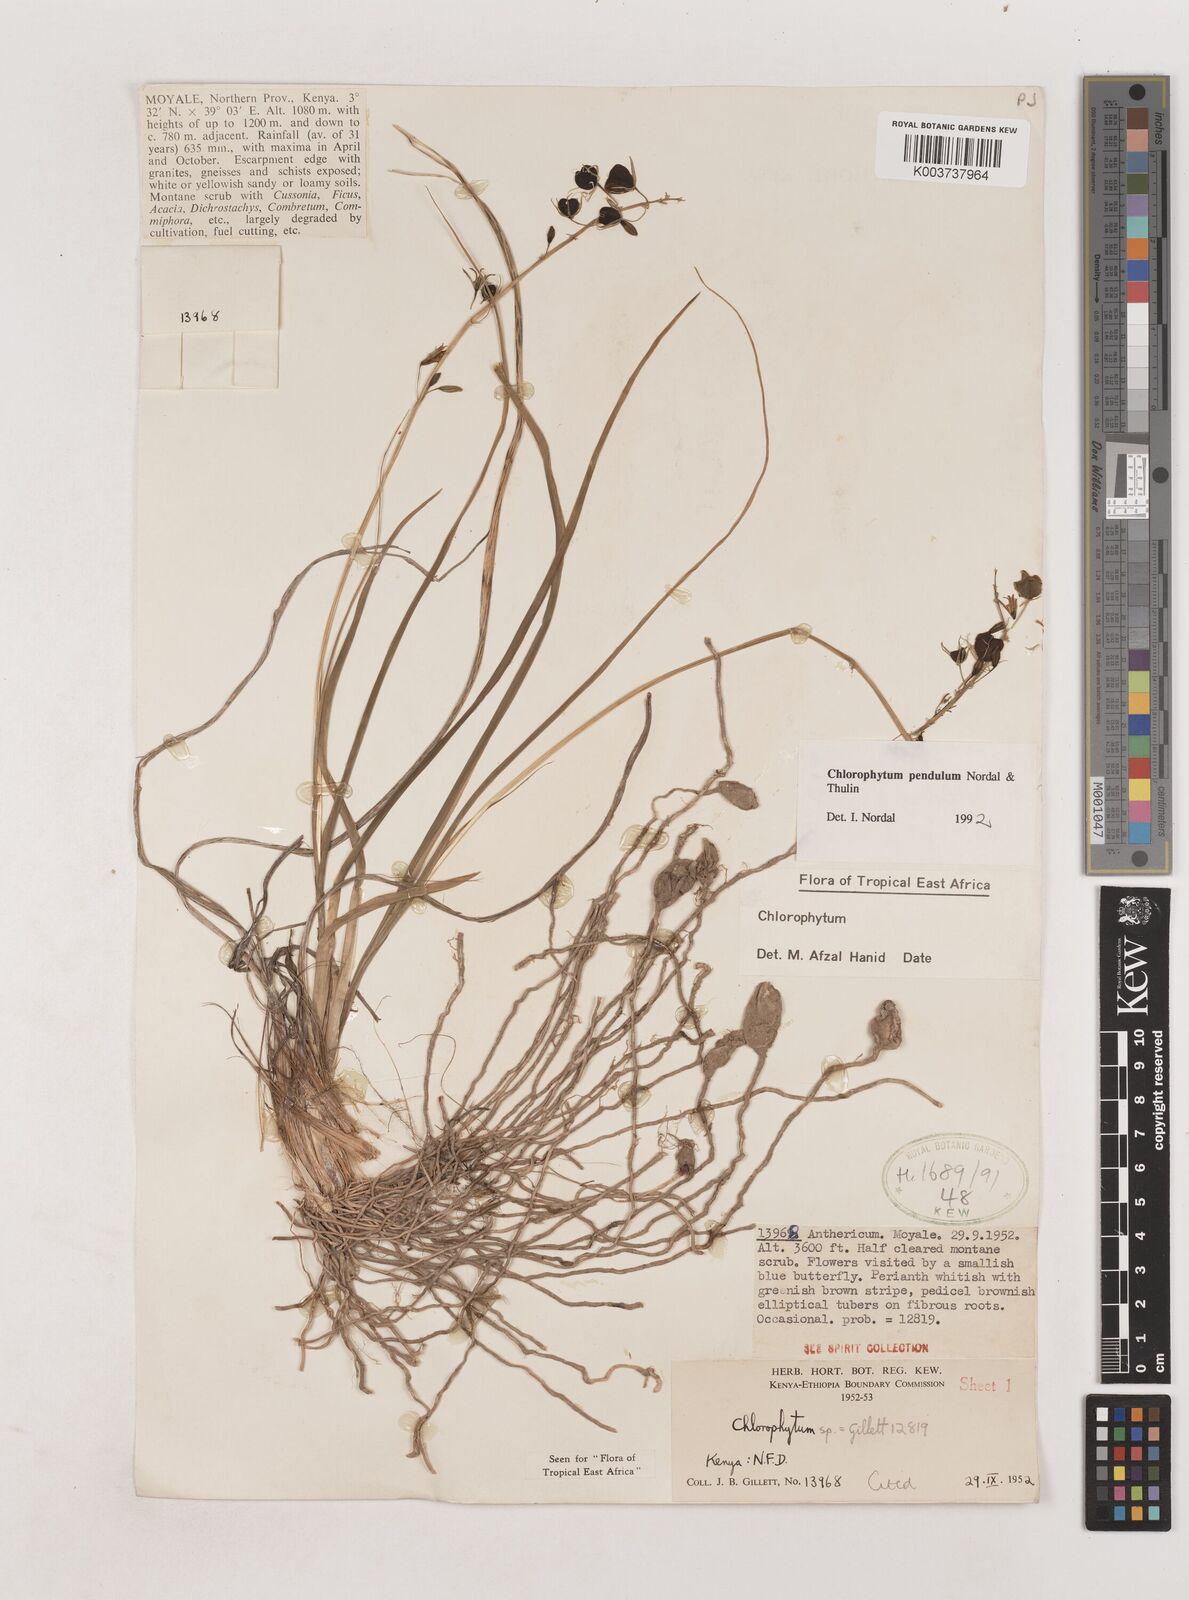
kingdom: Plantae
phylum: Tracheophyta
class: Liliopsida
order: Asparagales
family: Asparagaceae
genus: Chlorophytum
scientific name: Chlorophytum pendulum
